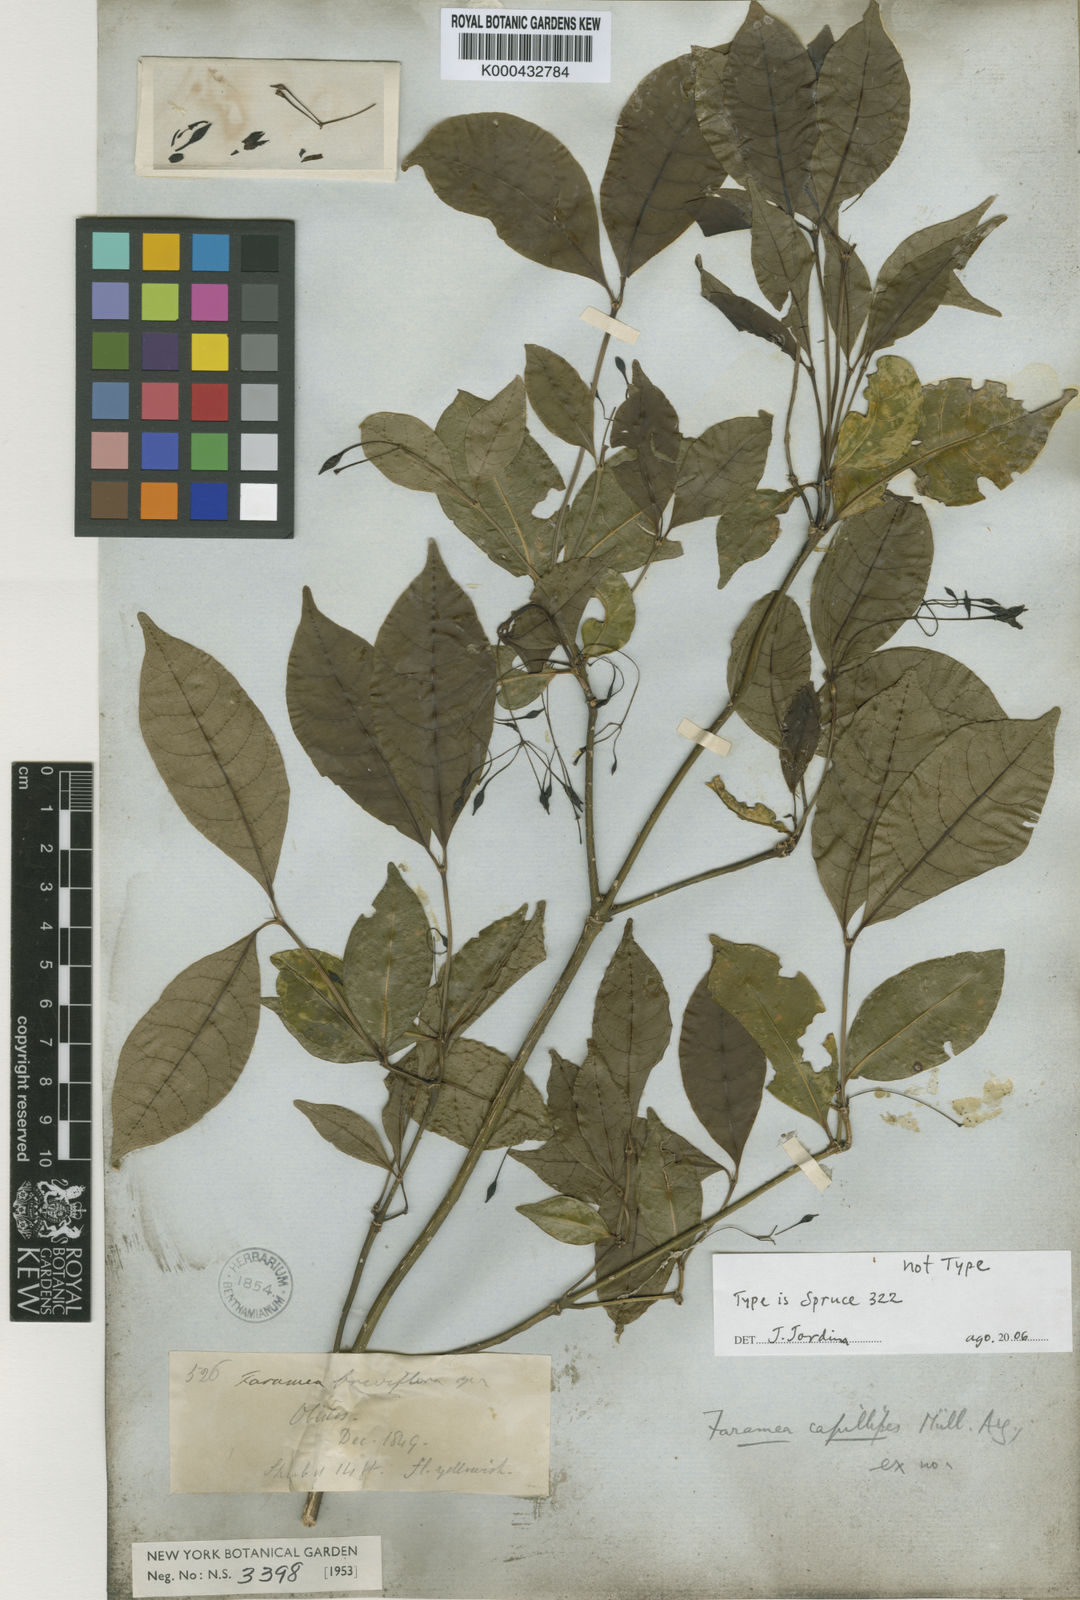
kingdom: Plantae
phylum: Tracheophyta
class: Magnoliopsida
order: Gentianales
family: Rubiaceae
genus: Faramea
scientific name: Faramea
